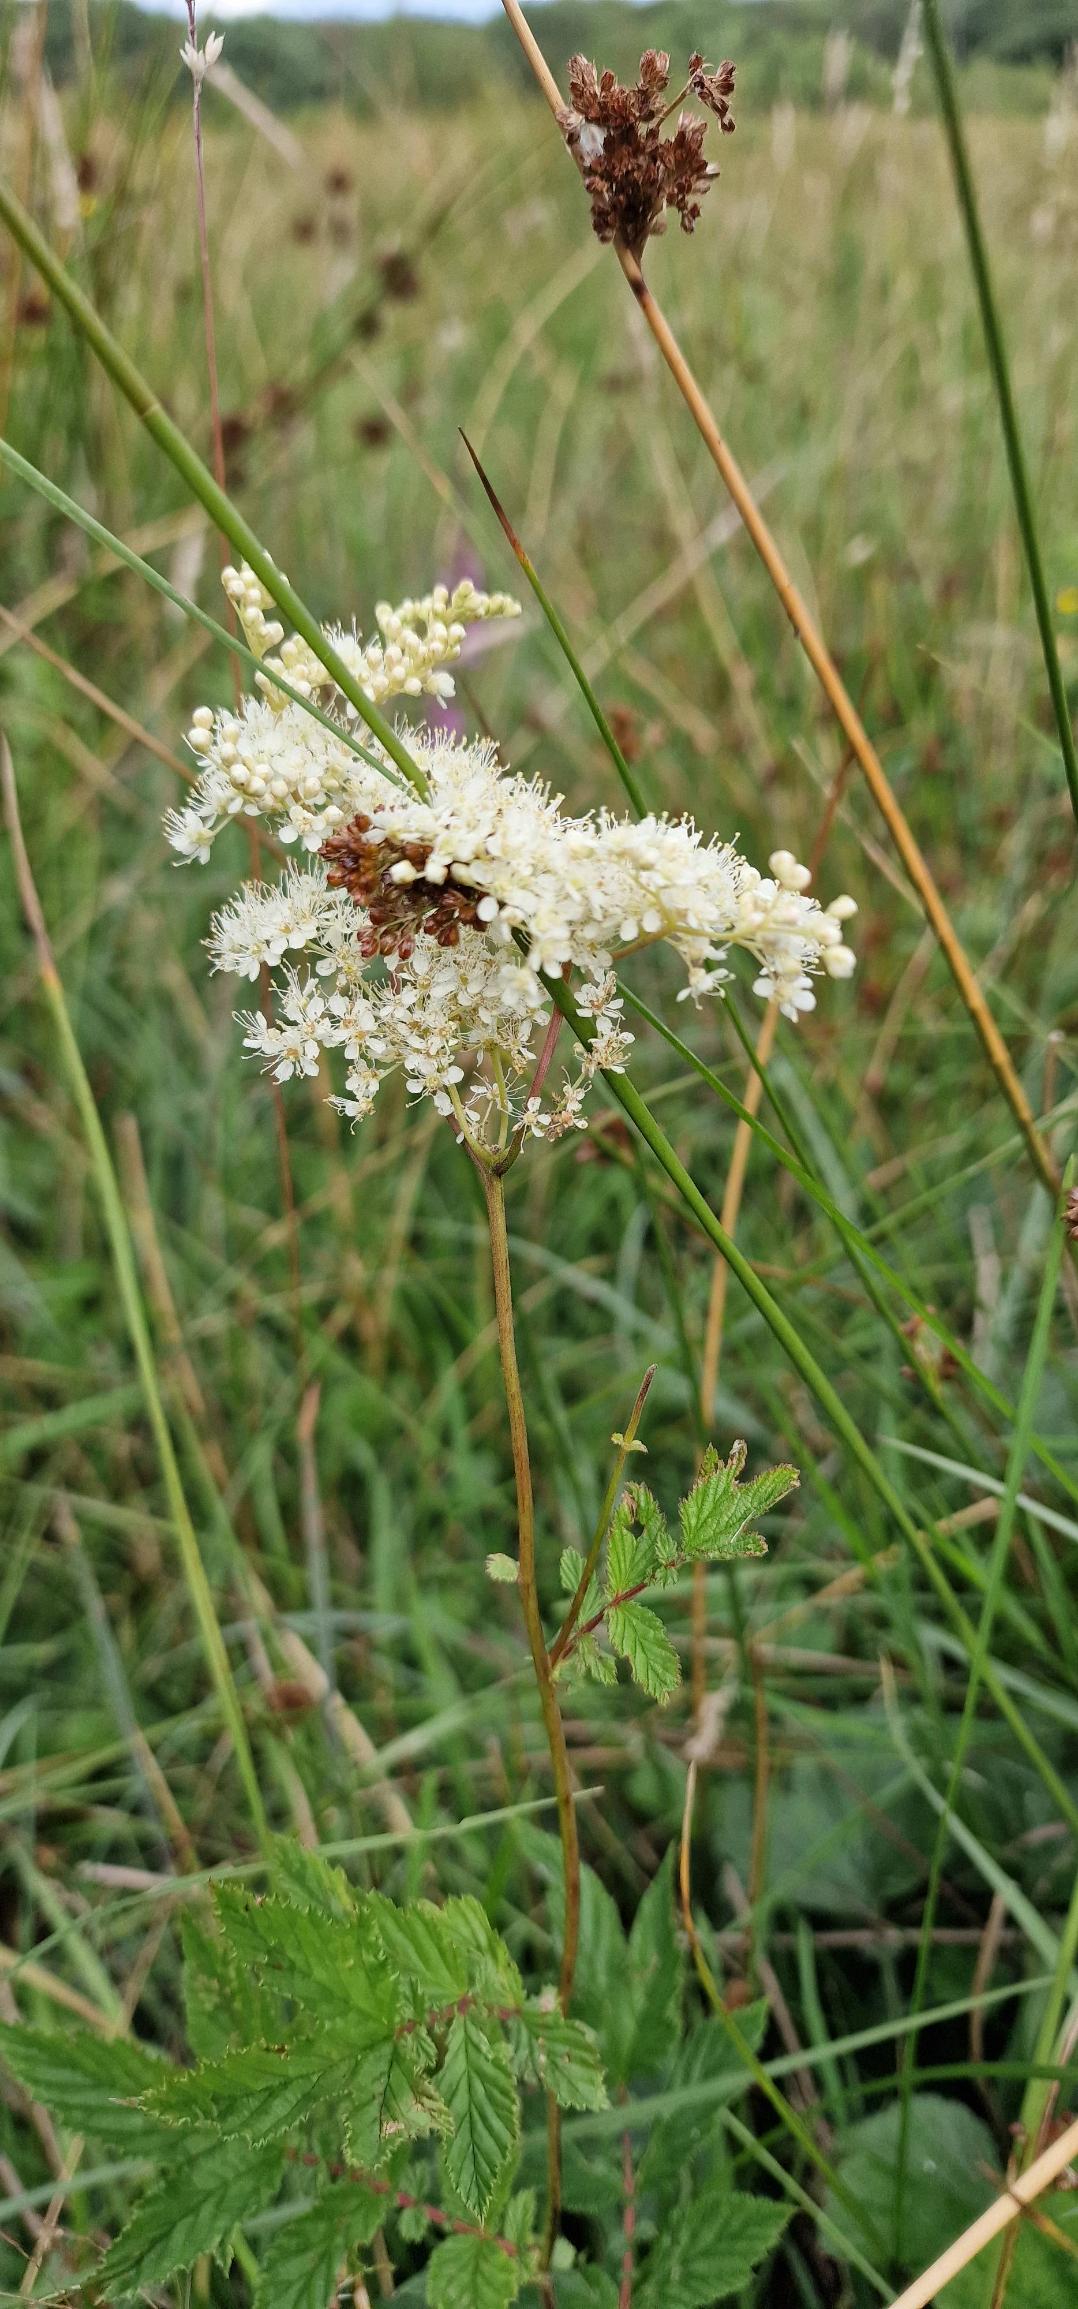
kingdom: Plantae
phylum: Tracheophyta
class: Magnoliopsida
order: Rosales
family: Rosaceae
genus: Filipendula
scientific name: Filipendula ulmaria
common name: Almindelig mjødurt
